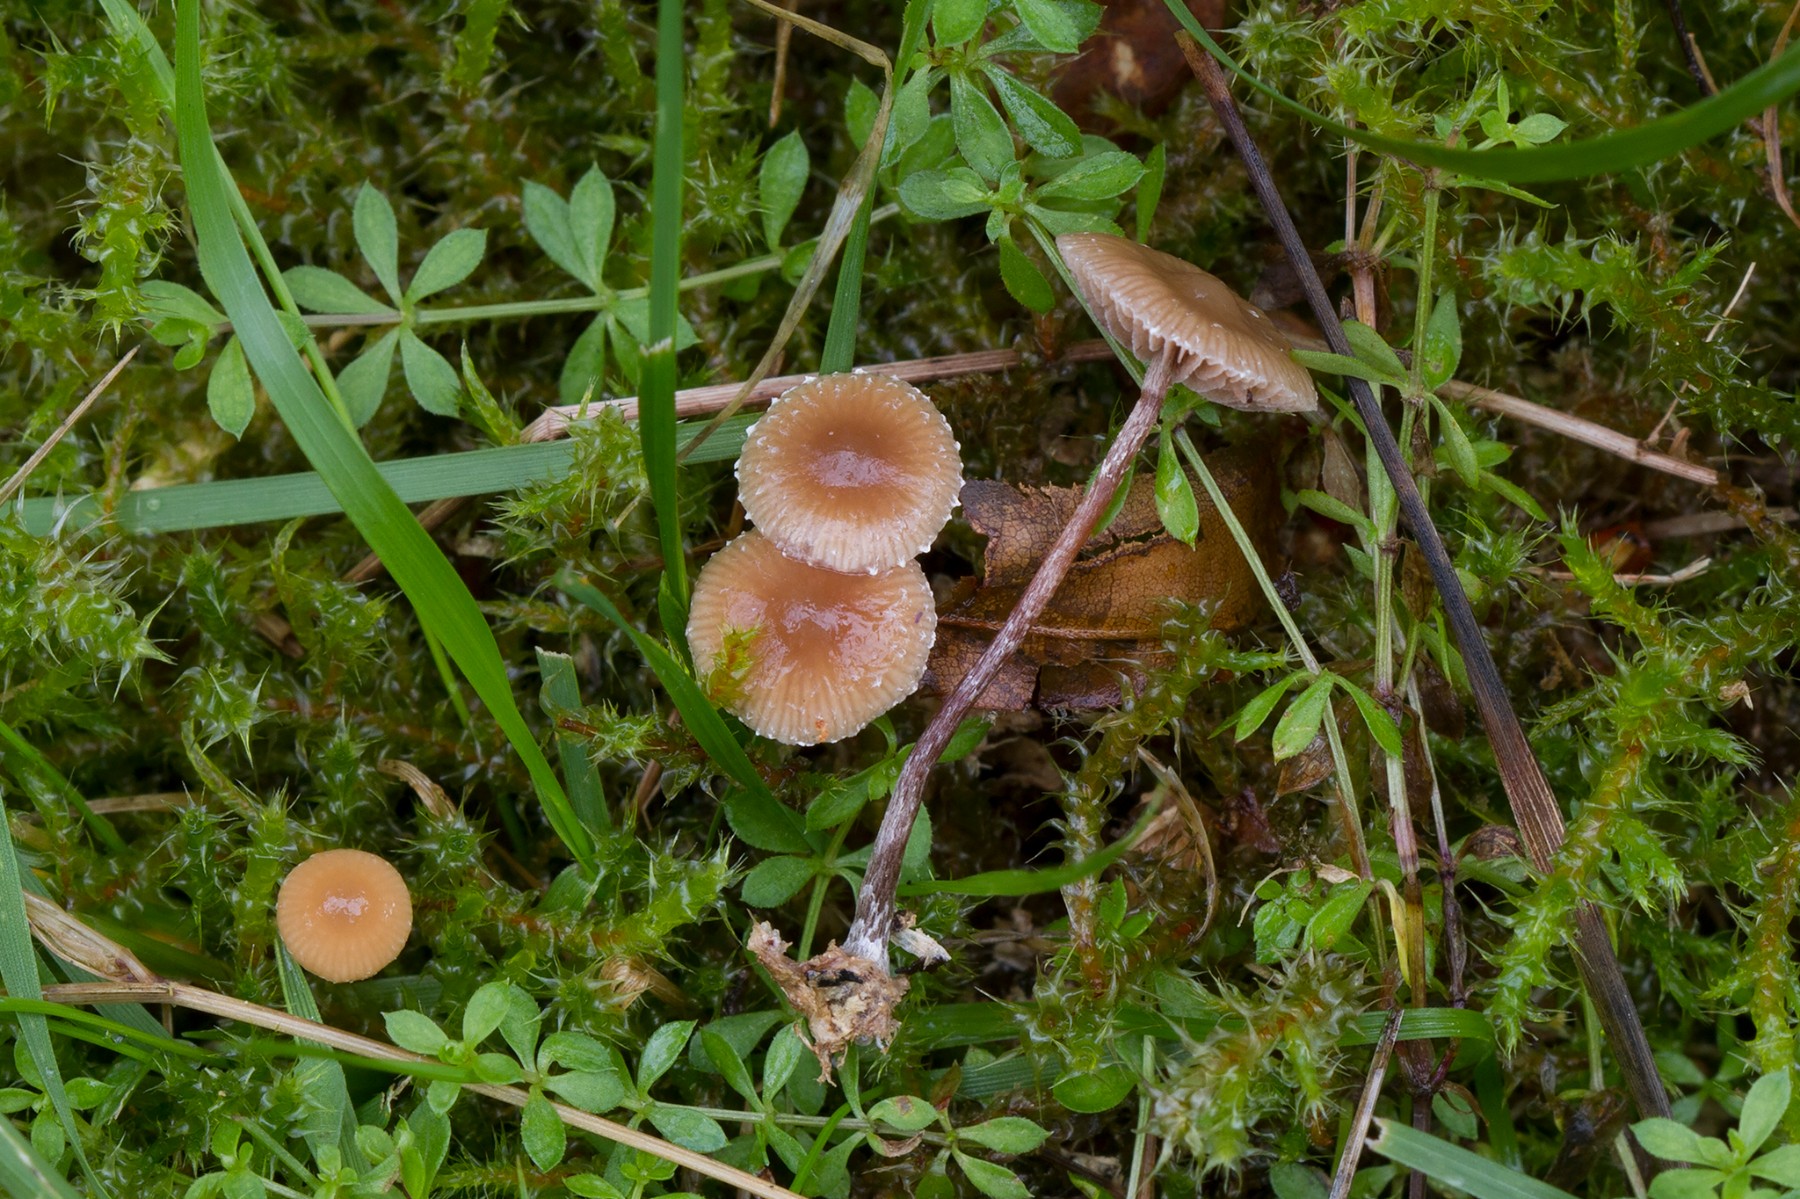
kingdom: Fungi
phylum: Basidiomycota
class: Agaricomycetes
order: Agaricales
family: Strophariaceae
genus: Deconica
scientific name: Deconica inquilina
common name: græs-stråhat
